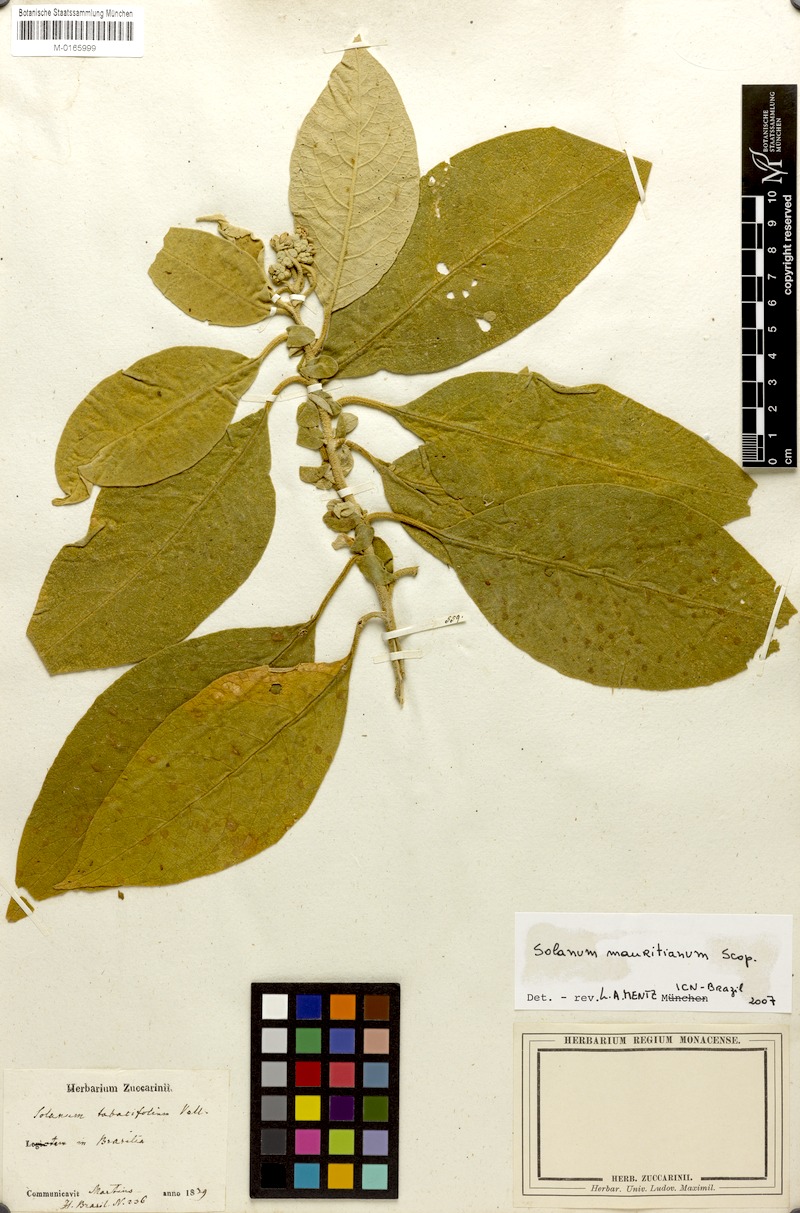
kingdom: Plantae
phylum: Tracheophyta
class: Magnoliopsida
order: Solanales
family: Solanaceae
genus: Solanum
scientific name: Solanum mauritianum
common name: Earleaf nightshade
